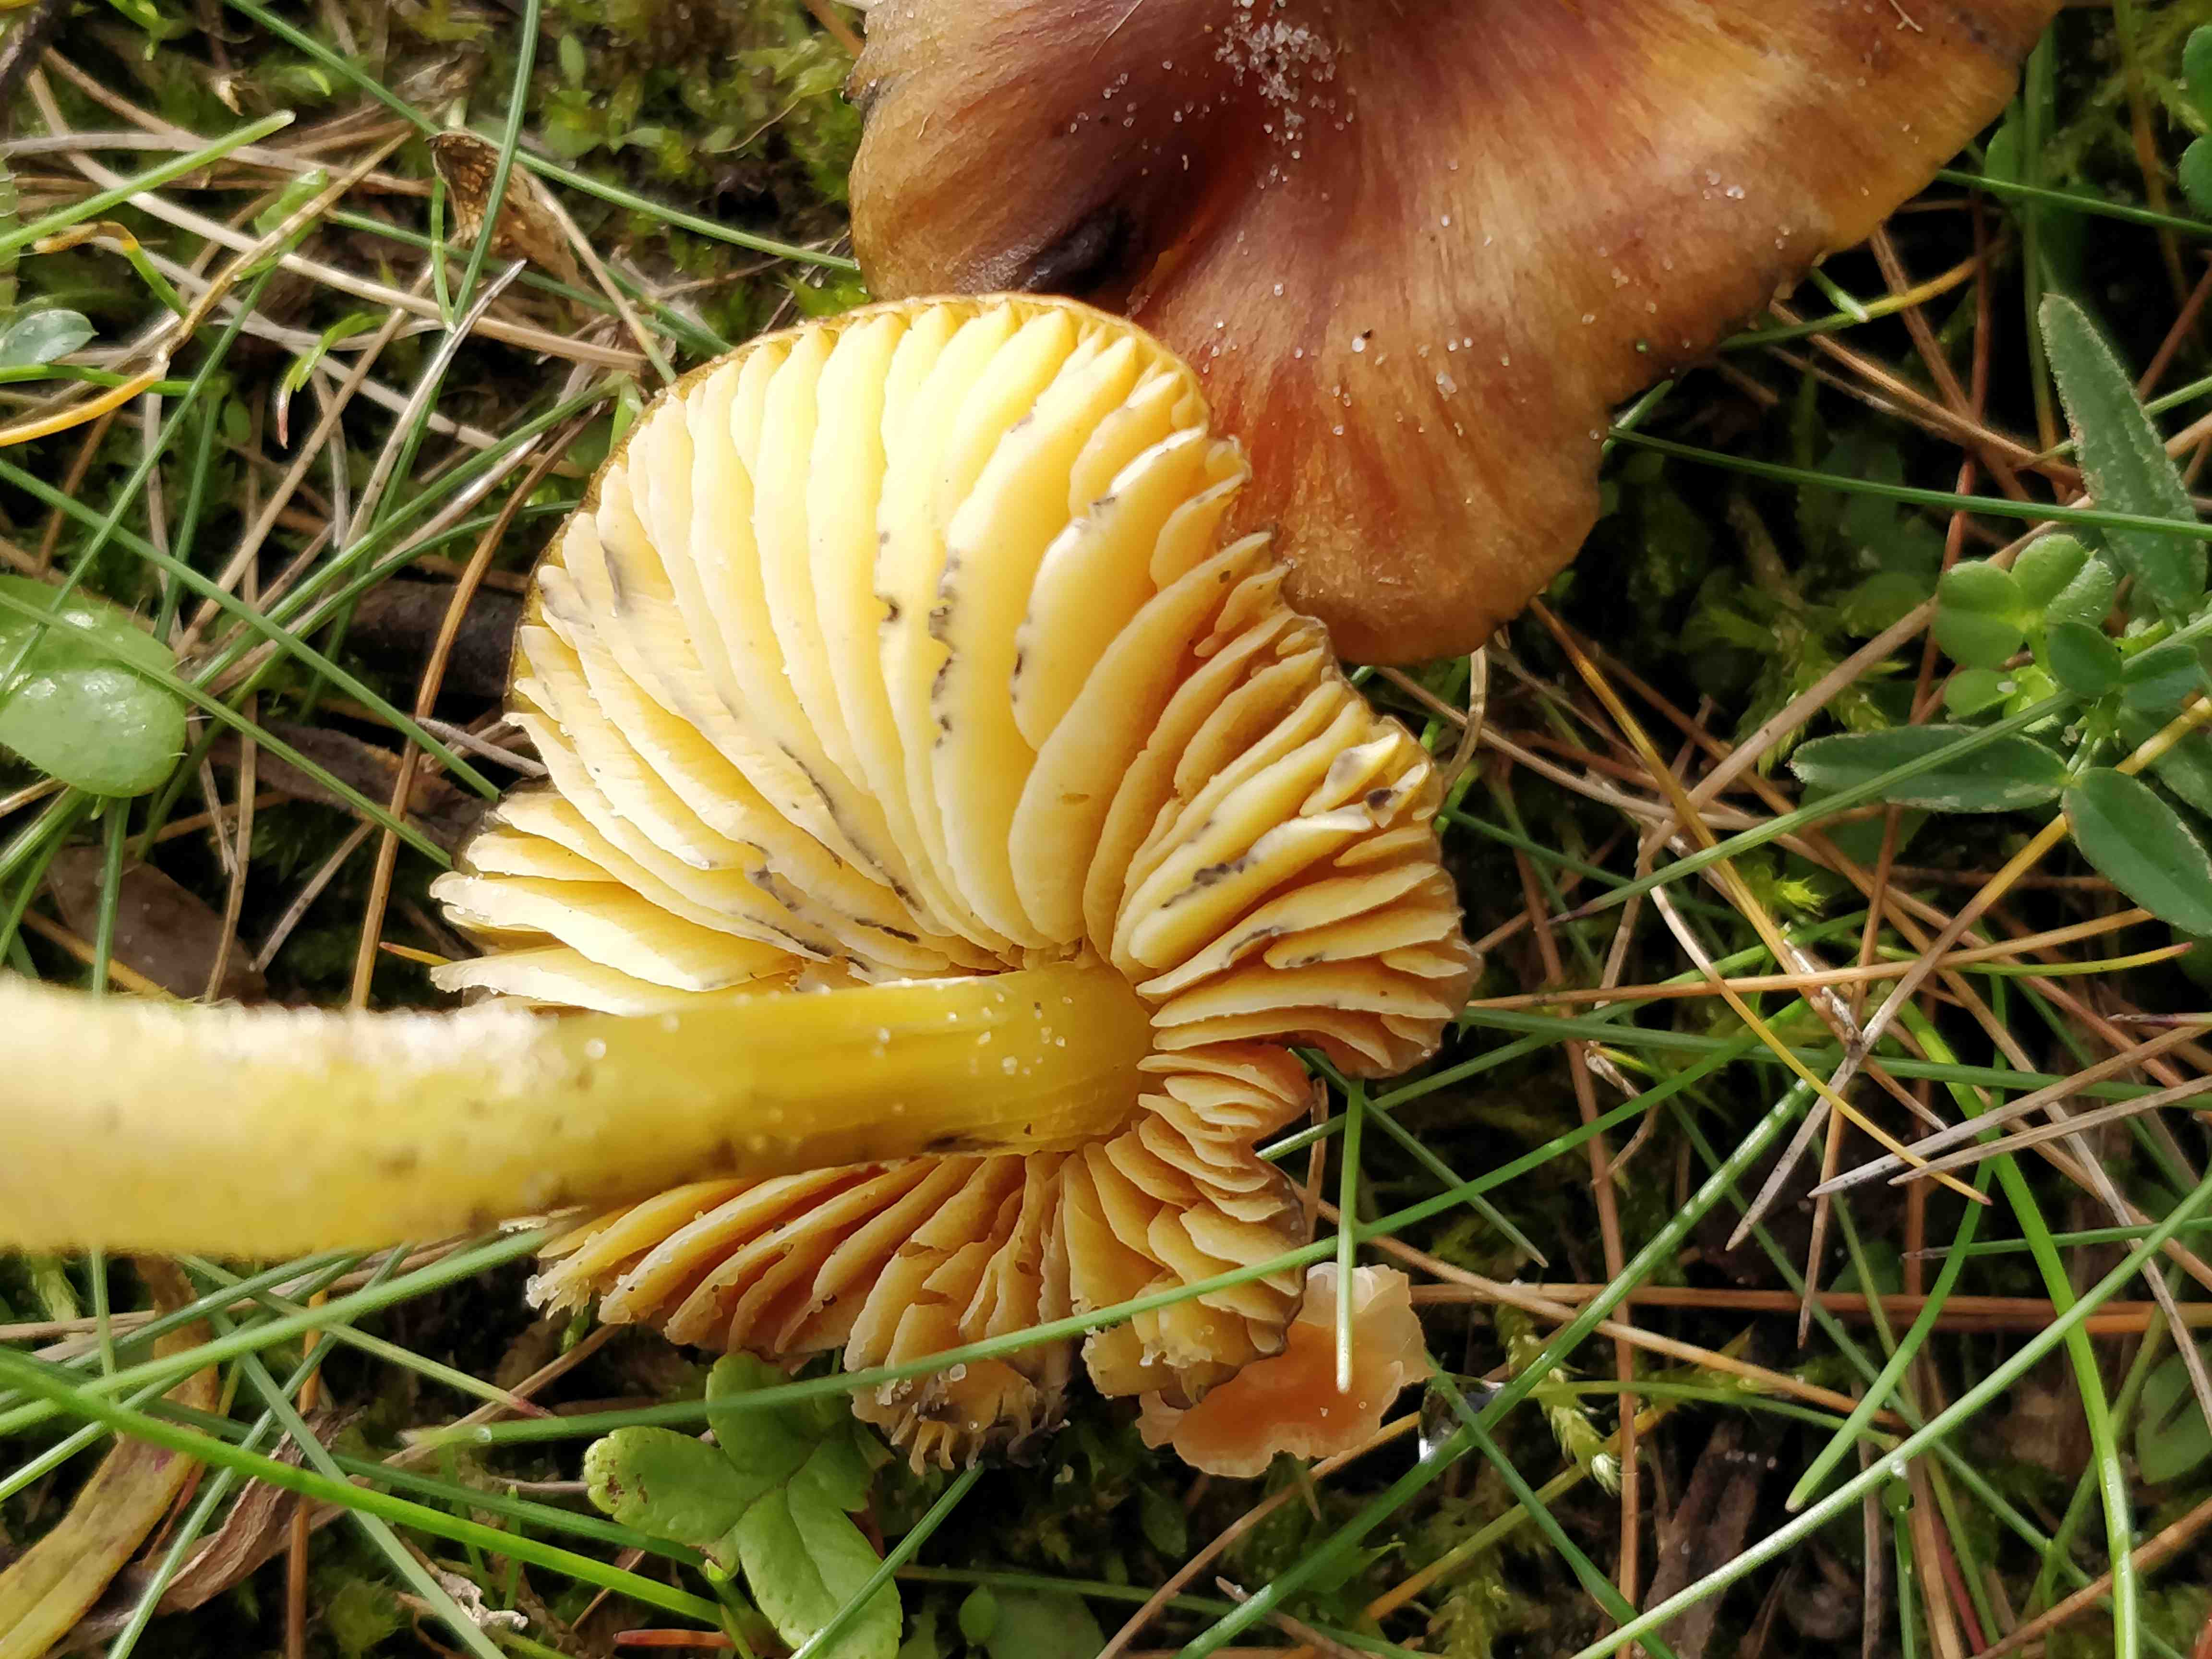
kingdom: Fungi
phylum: Basidiomycota
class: Agaricomycetes
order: Agaricales
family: Hygrophoraceae
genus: Hygrocybe
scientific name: Hygrocybe conica
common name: kegle-vokshat
